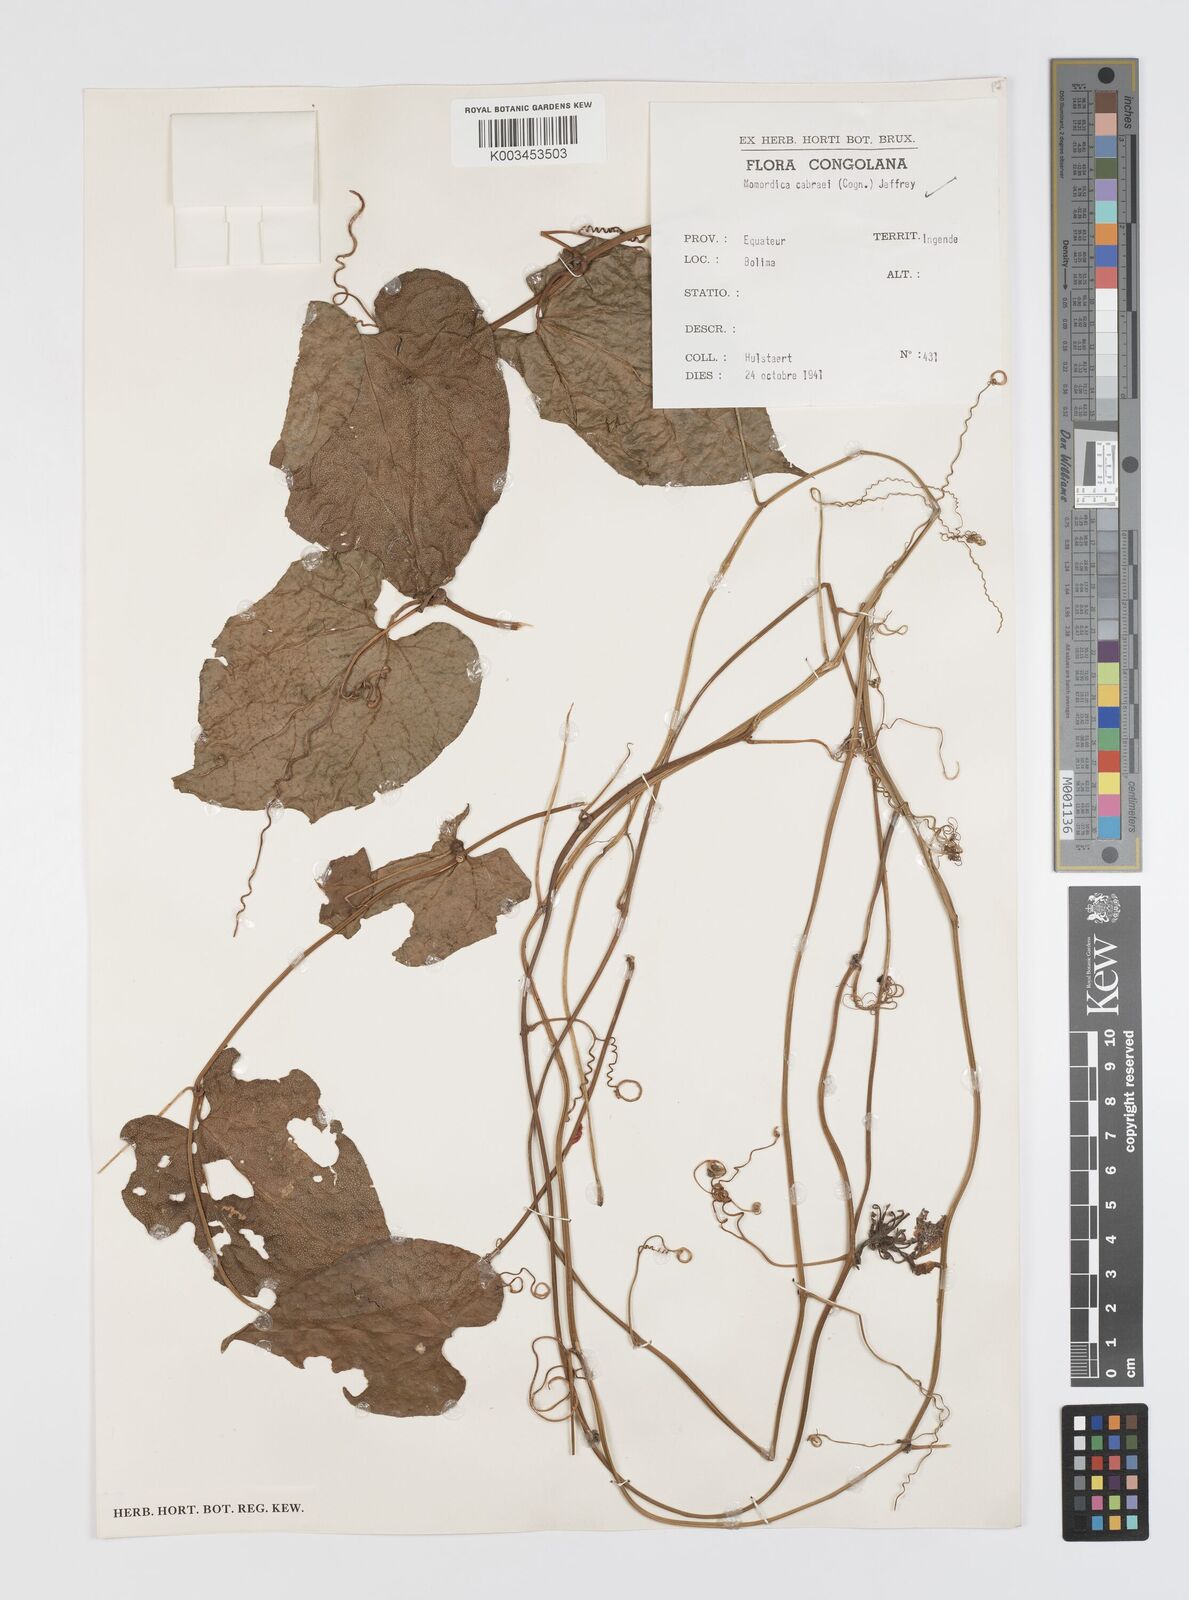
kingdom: Plantae
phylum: Tracheophyta
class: Magnoliopsida
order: Cucurbitales
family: Cucurbitaceae
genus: Momordica
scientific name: Momordica cabrae
